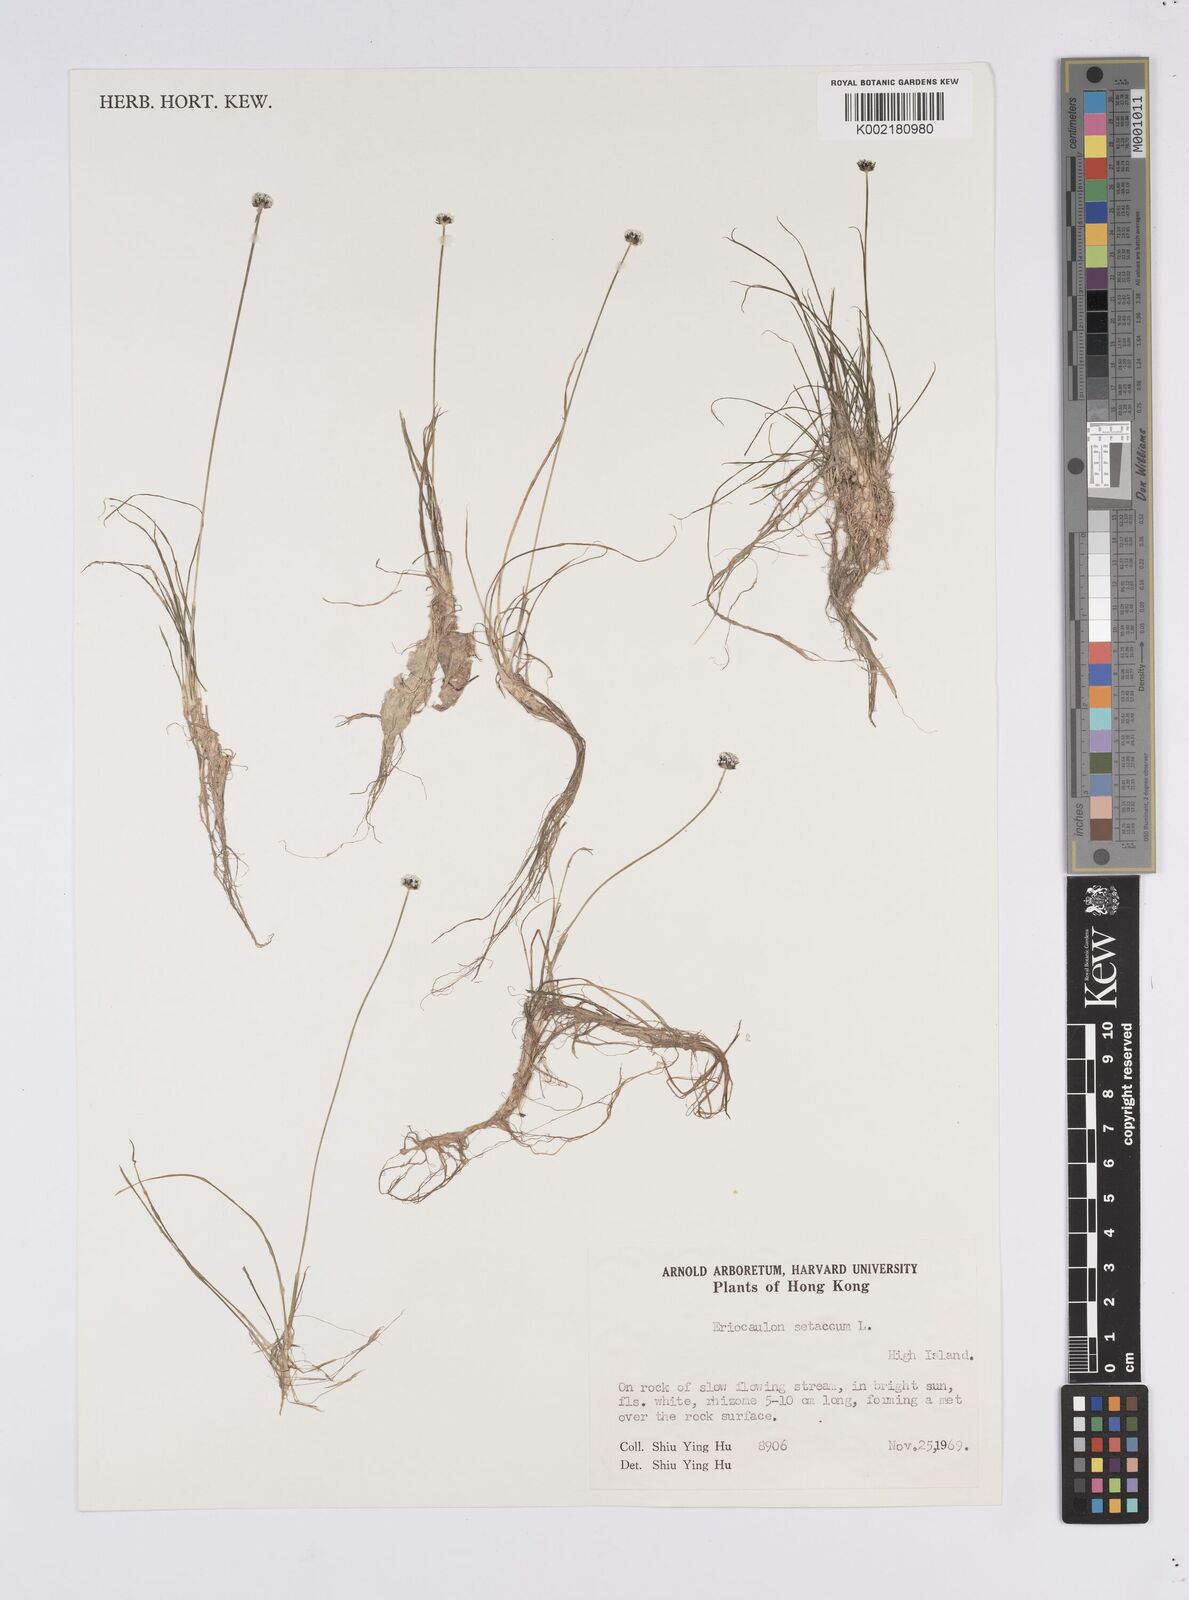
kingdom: Plantae
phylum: Tracheophyta
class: Liliopsida
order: Poales
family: Eriocaulaceae
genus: Eriocaulon
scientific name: Eriocaulon setaceum
